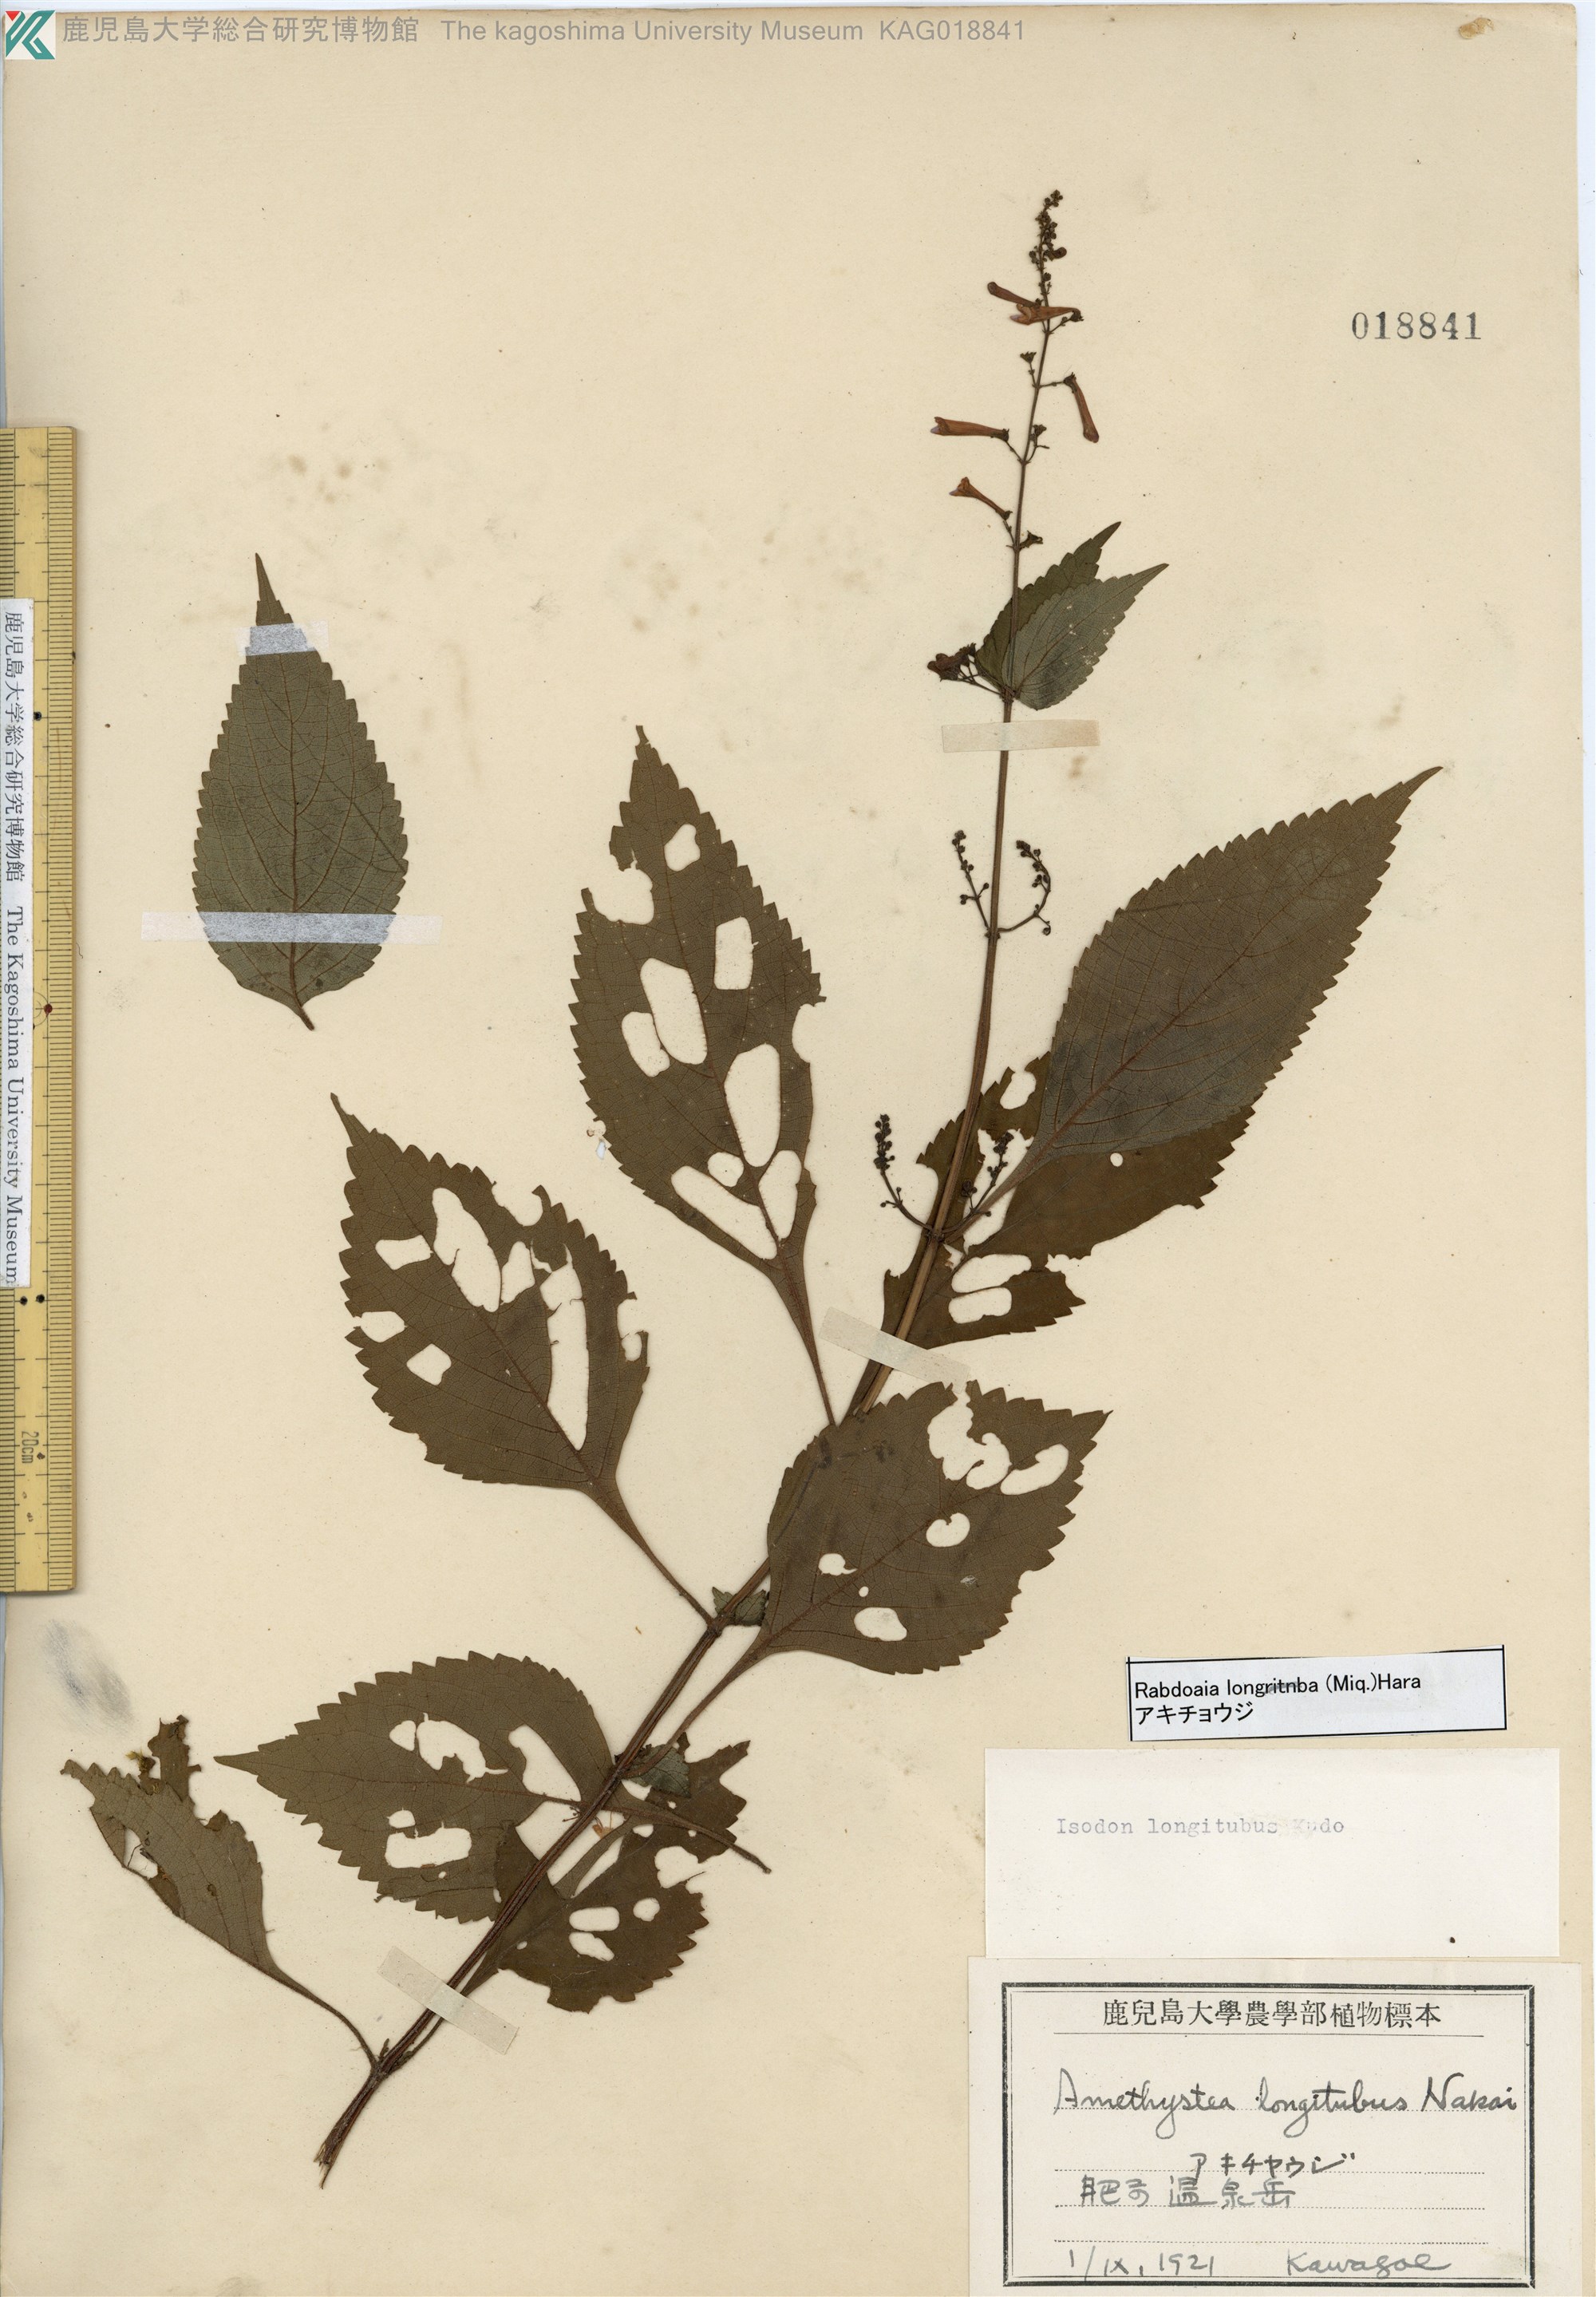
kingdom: Plantae
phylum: Tracheophyta
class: Magnoliopsida
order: Lamiales
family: Lamiaceae
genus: Isodon
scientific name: Isodon longitubus
